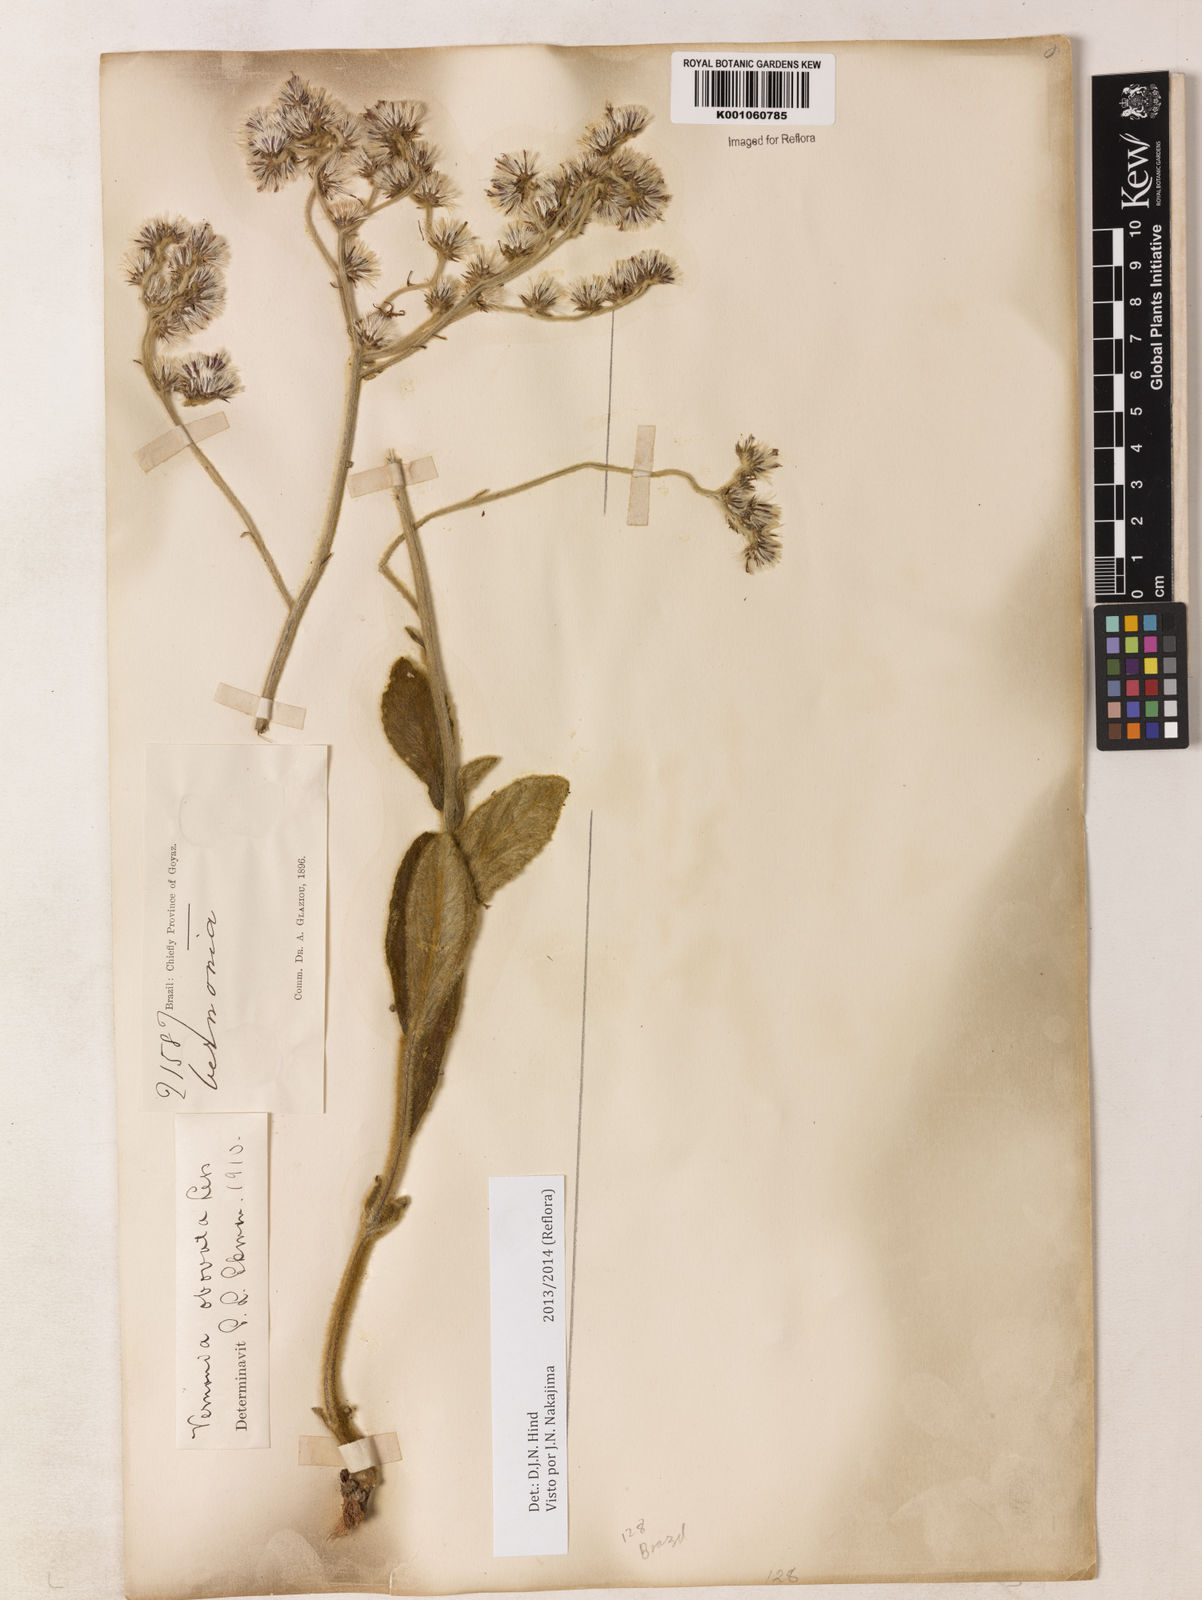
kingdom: Plantae
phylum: Tracheophyta
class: Magnoliopsida
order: Asterales
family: Asteraceae
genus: Chrysolaena
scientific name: Chrysolaena obovata
